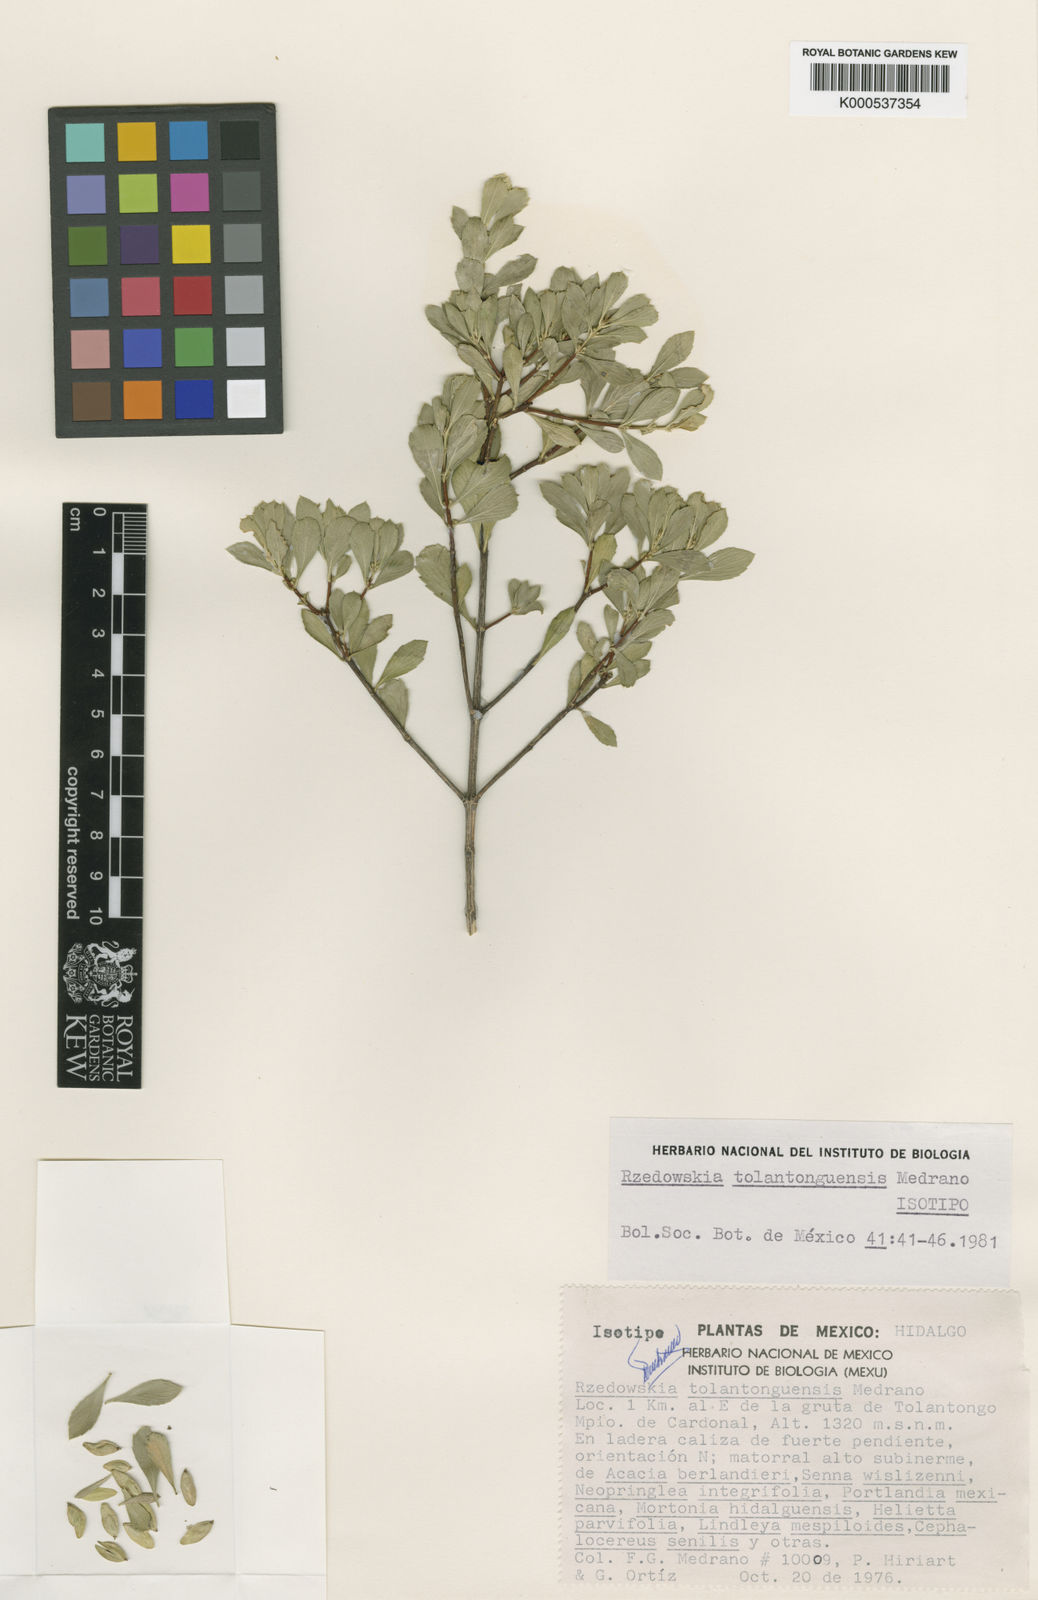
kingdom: Plantae
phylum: Tracheophyta
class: Magnoliopsida
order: Celastrales
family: Celastraceae
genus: Rzedowskia
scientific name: Rzedowskia tolantonguensis
